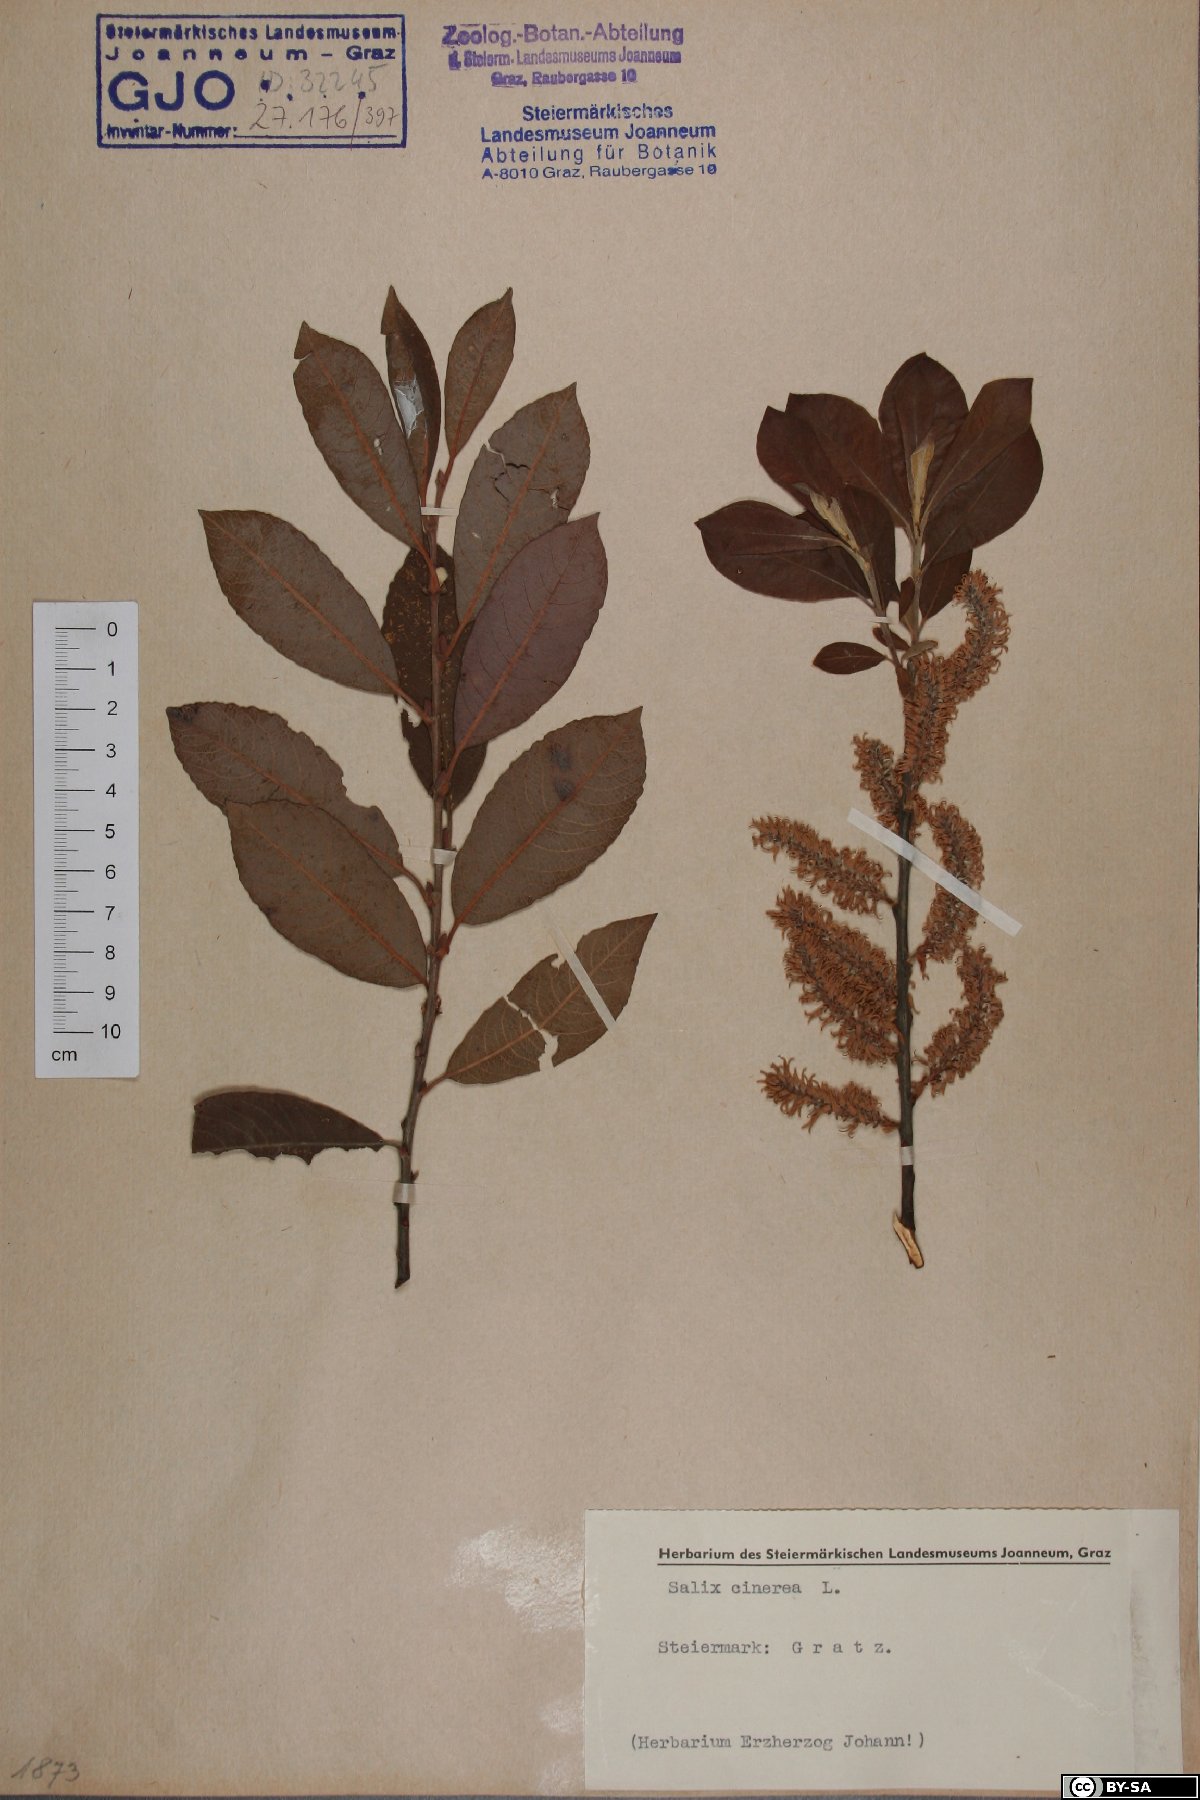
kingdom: Plantae
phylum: Tracheophyta
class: Magnoliopsida
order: Malpighiales
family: Salicaceae
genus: Salix
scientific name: Salix cinerea
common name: Common sallow
